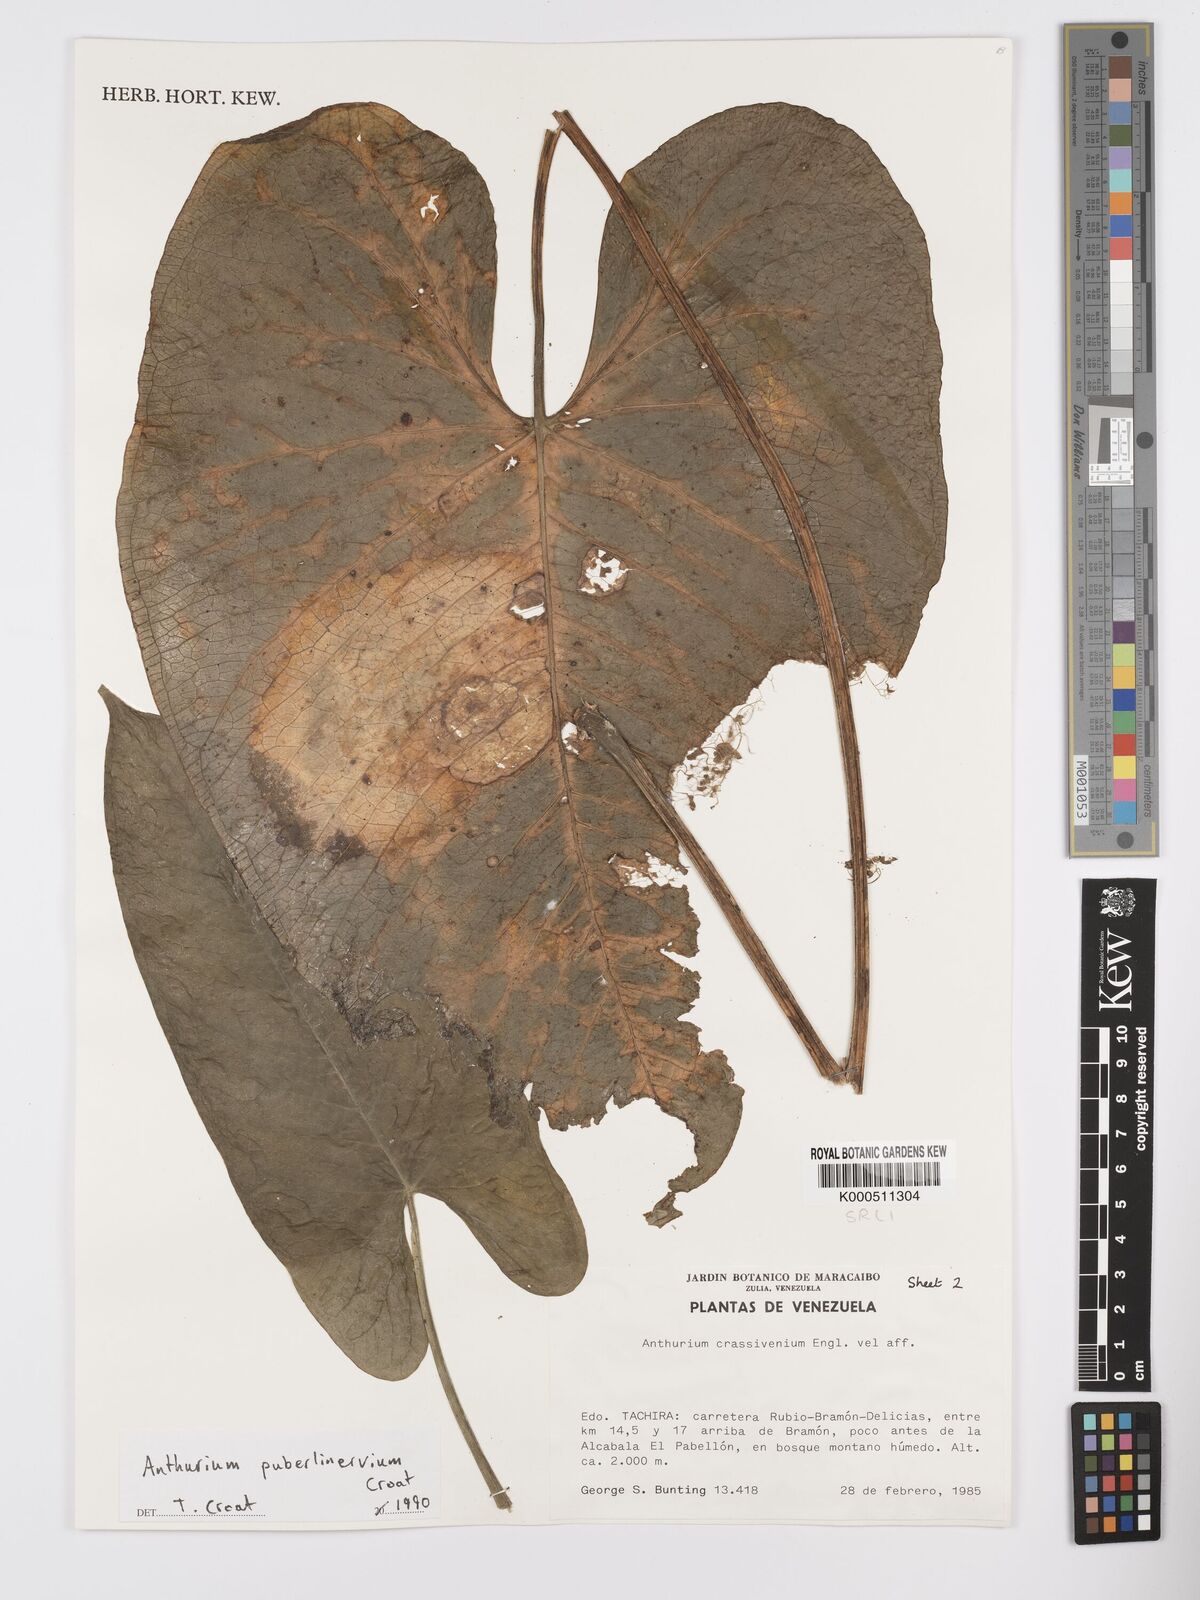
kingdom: Plantae
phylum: Tracheophyta
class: Liliopsida
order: Alismatales
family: Araceae
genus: Anthurium
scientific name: Anthurium puberulinervium
